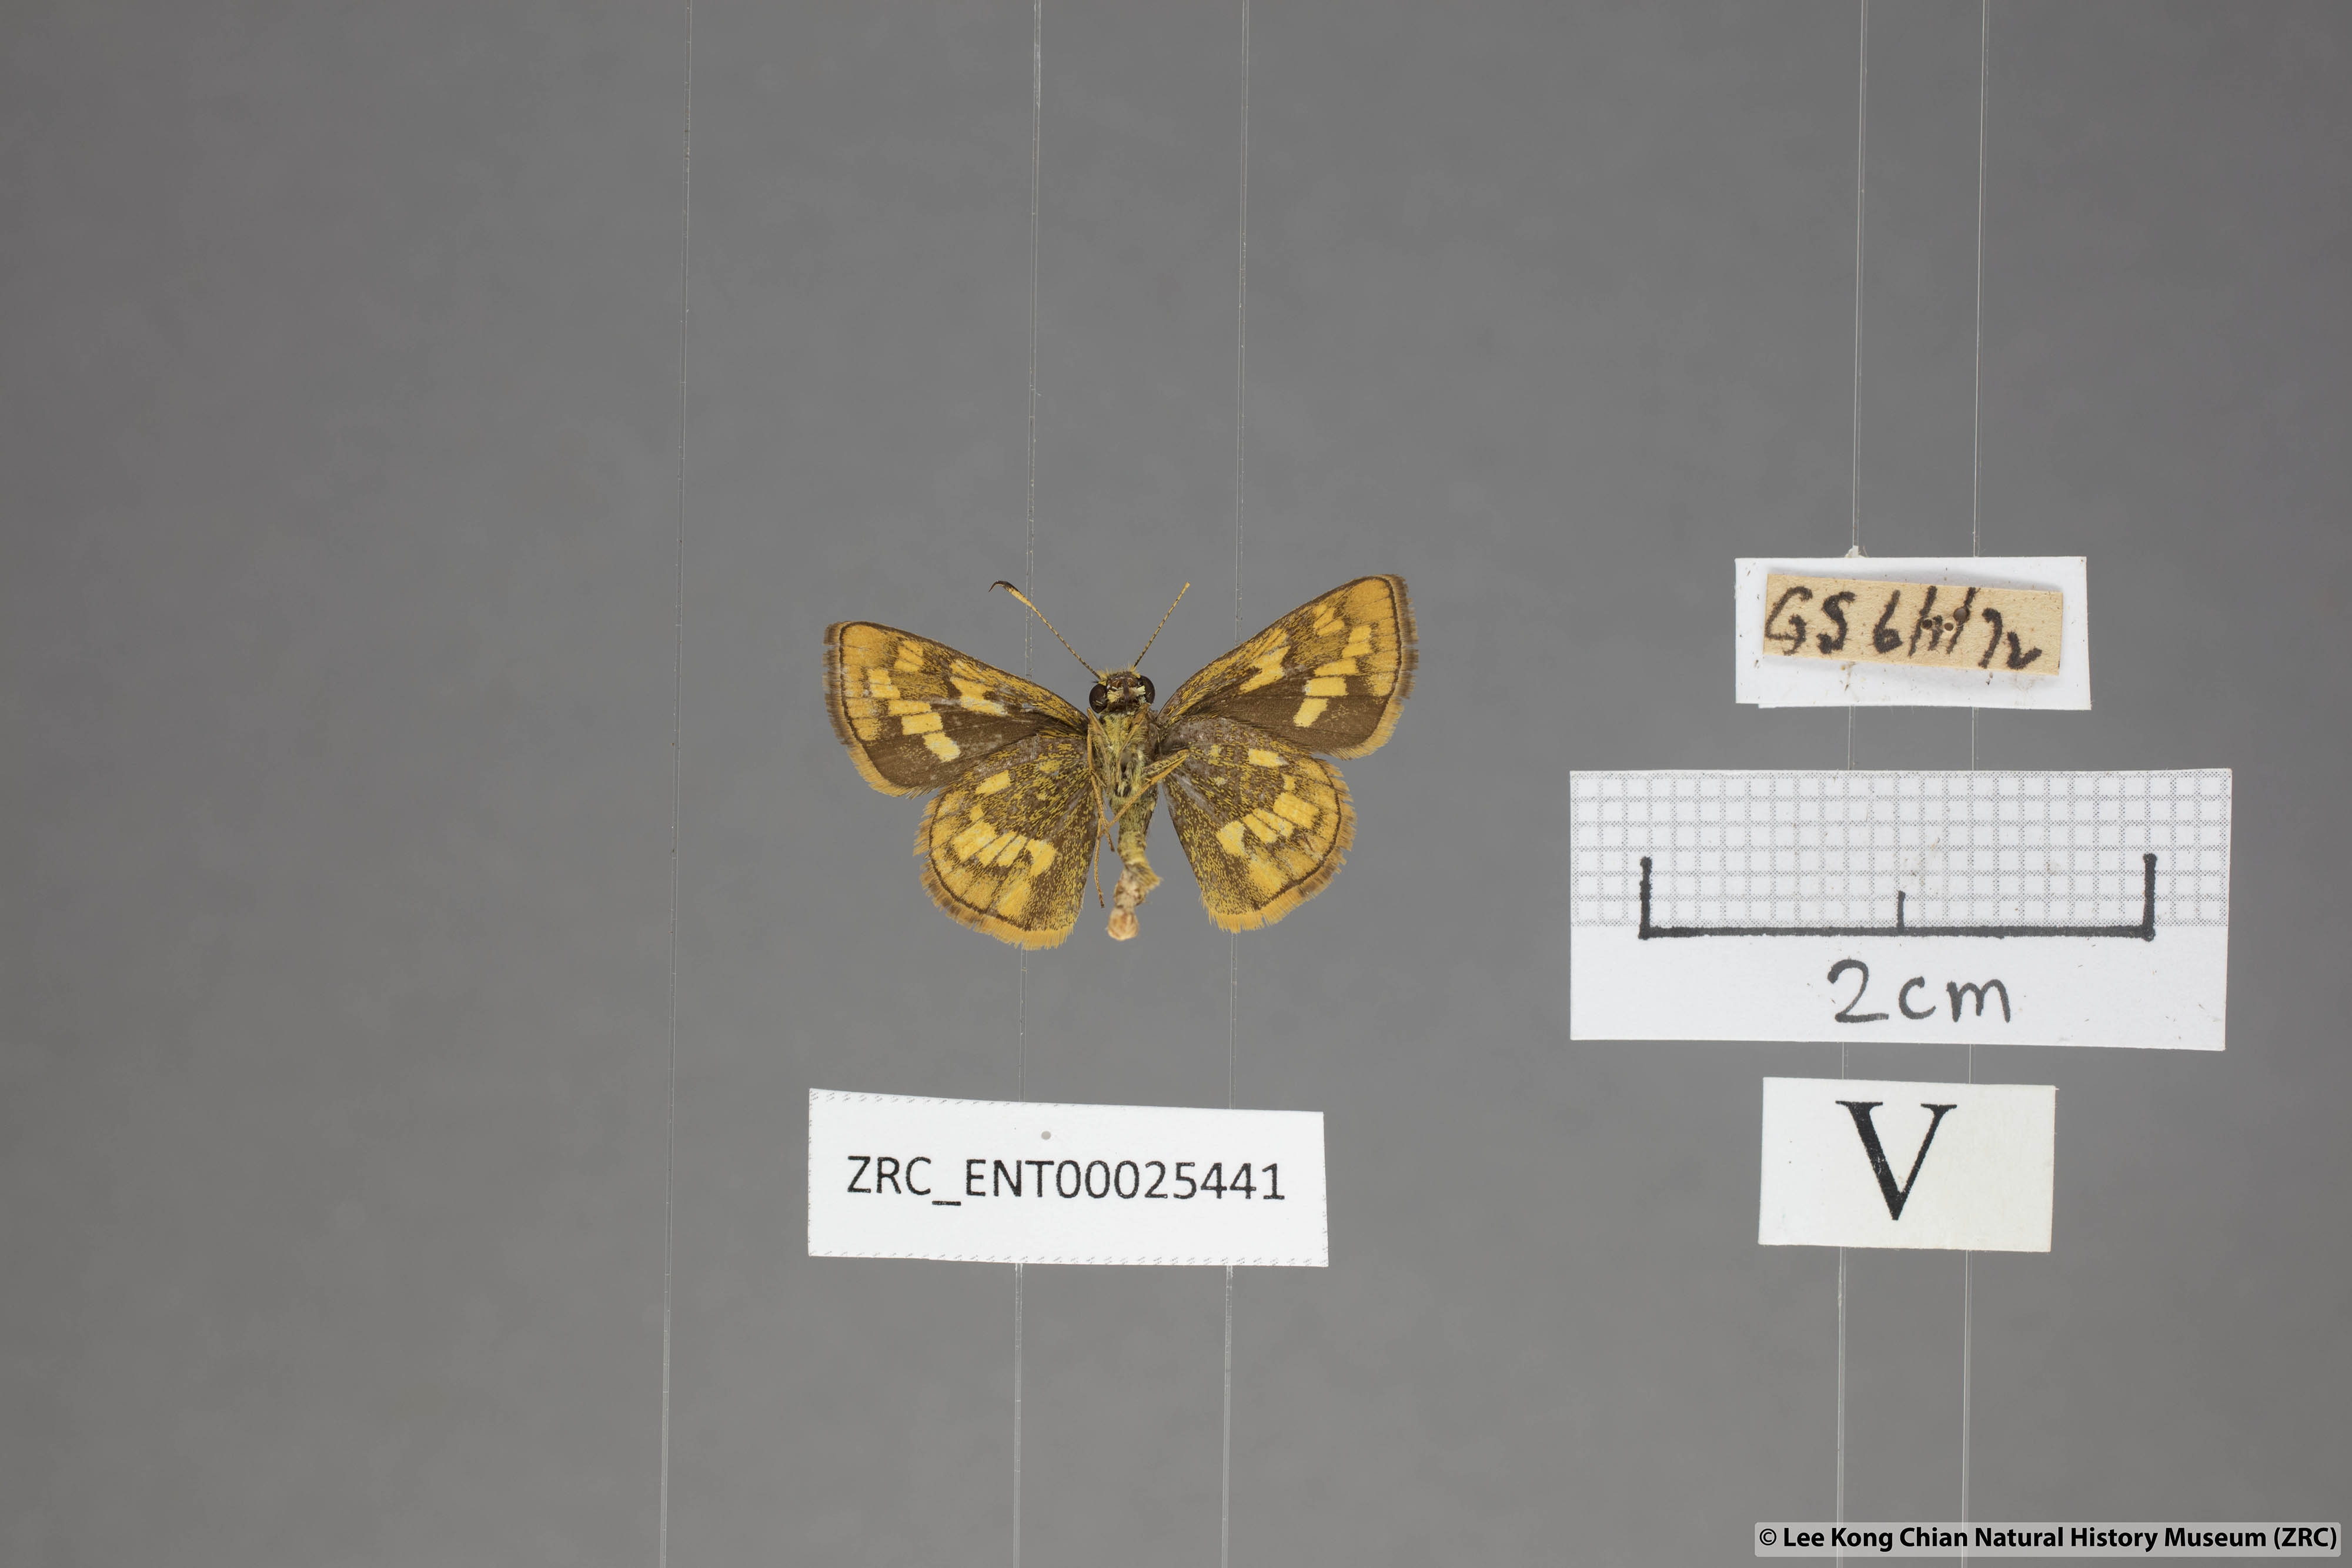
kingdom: Animalia
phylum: Arthropoda
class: Insecta
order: Lepidoptera
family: Hesperiidae
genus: Potanthus
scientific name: Potanthus omaha
